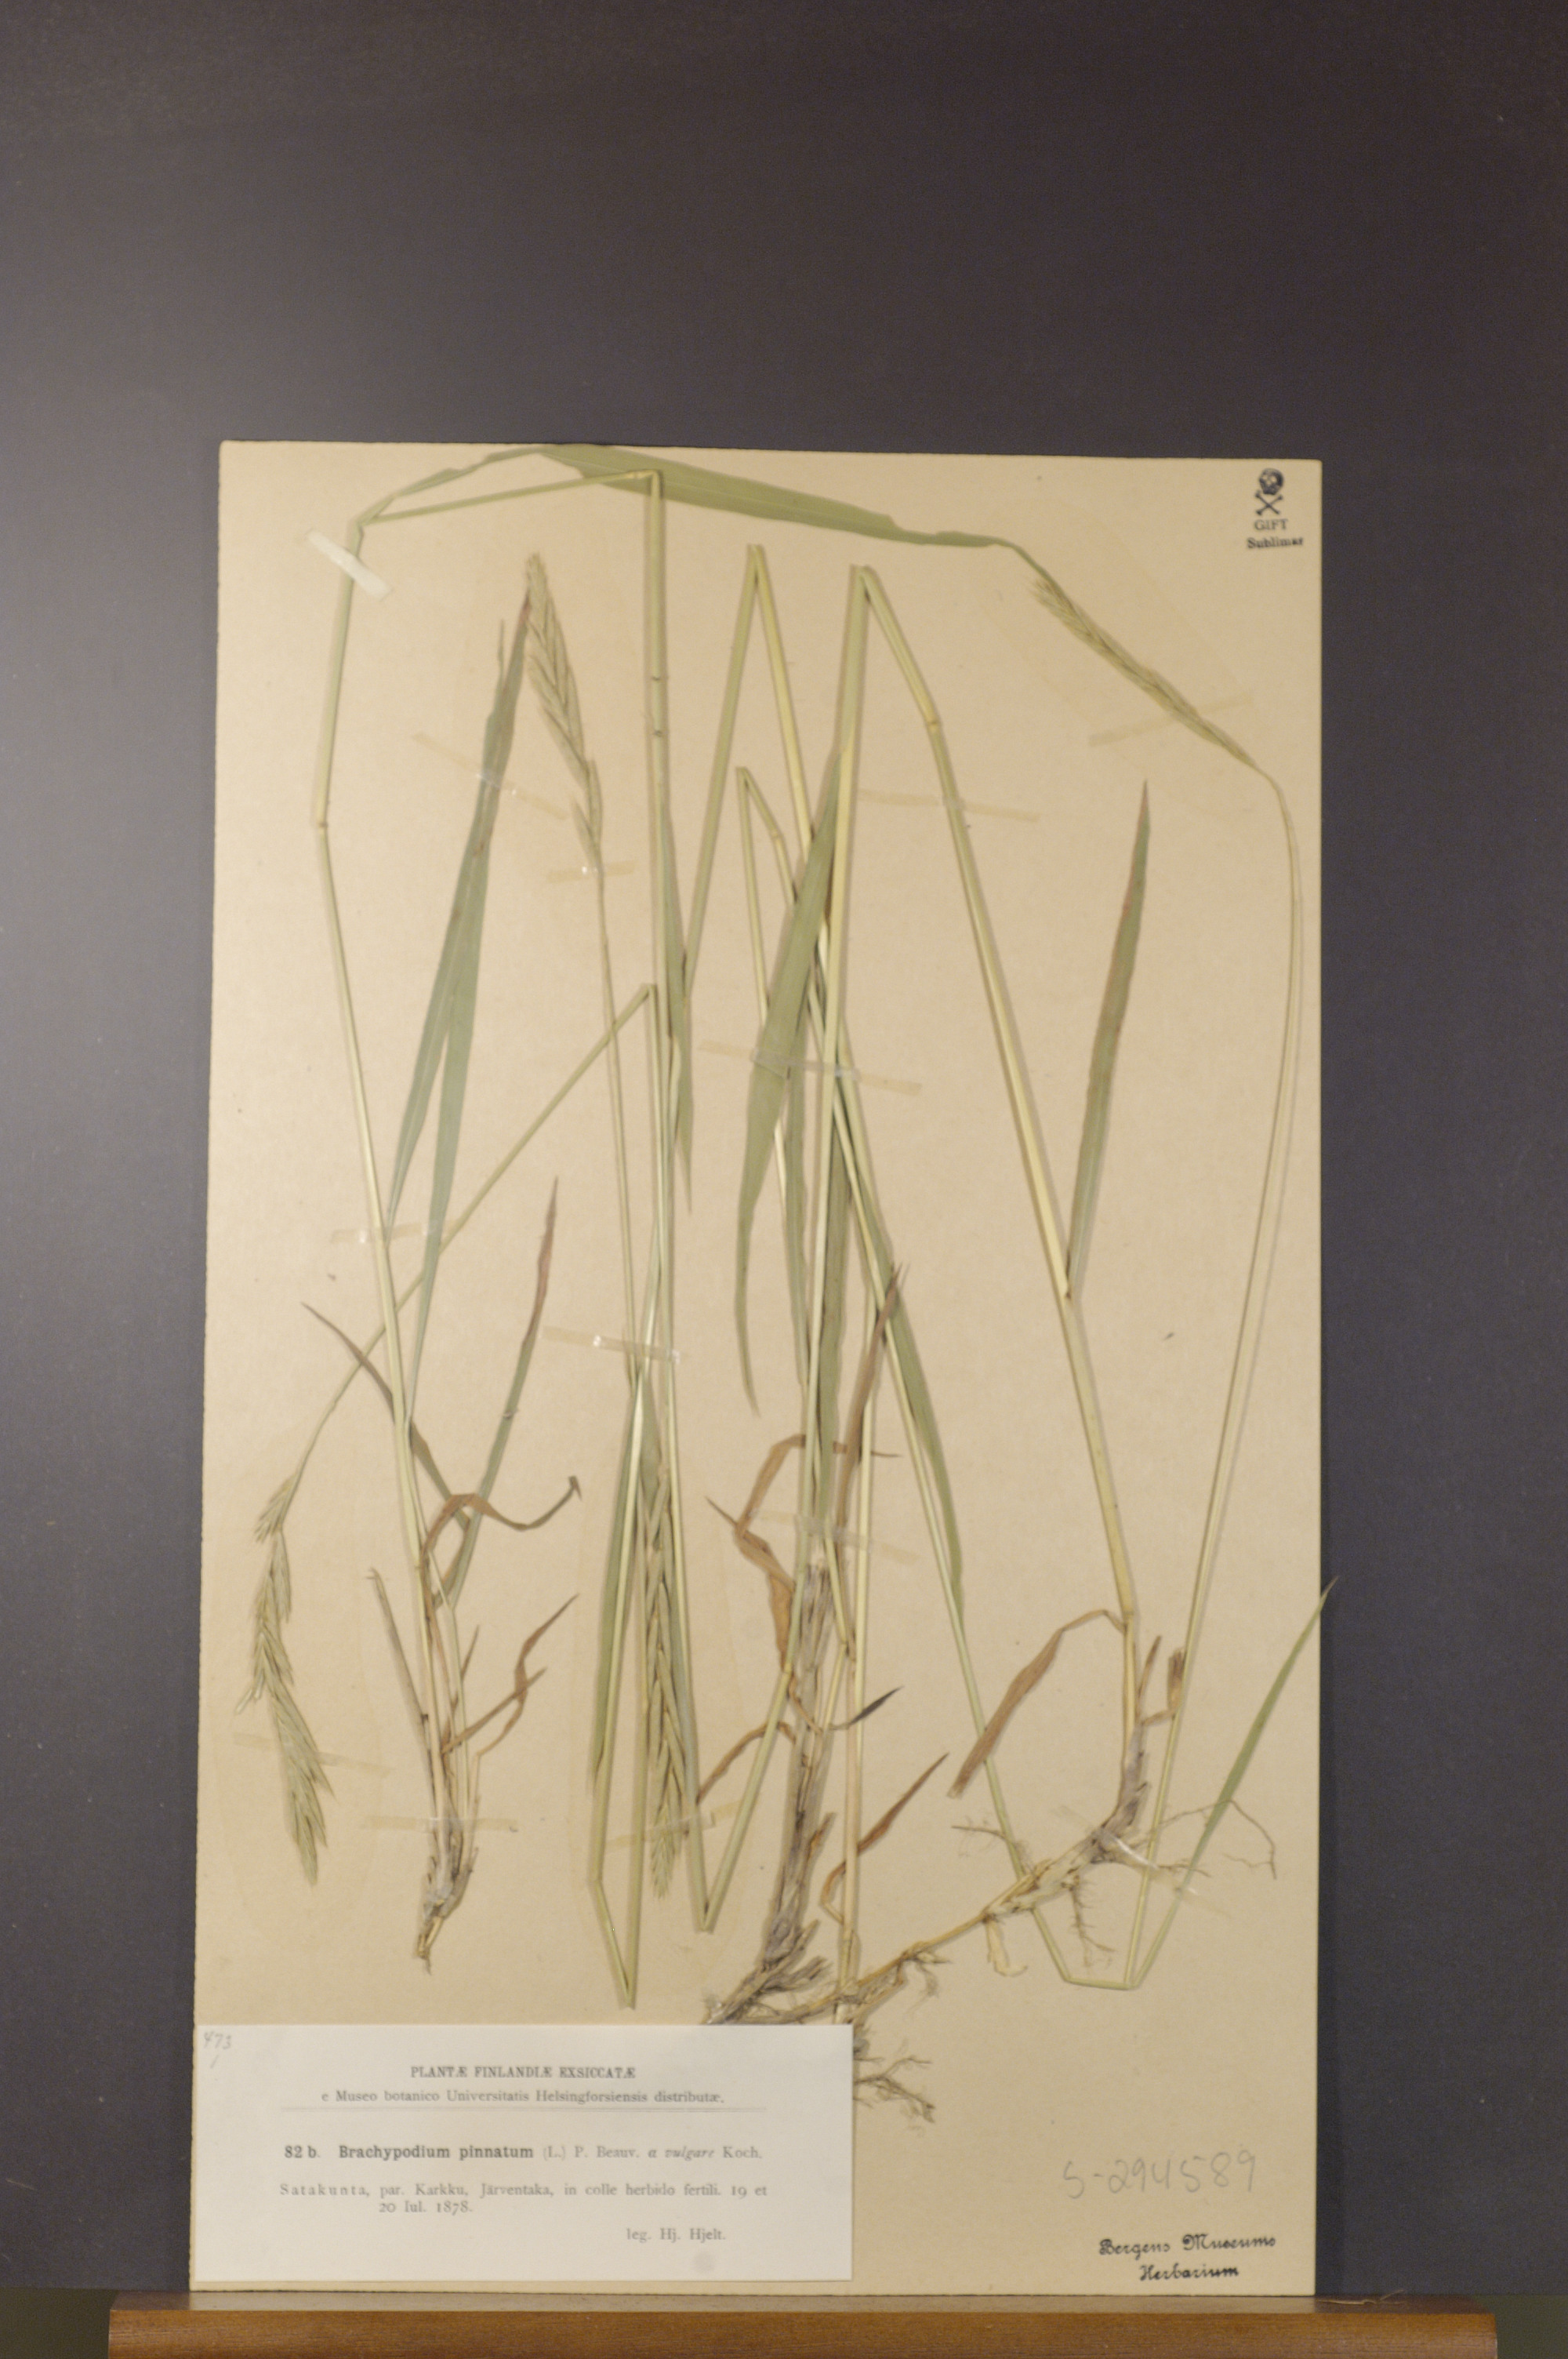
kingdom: Plantae
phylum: Tracheophyta
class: Liliopsida
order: Poales
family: Poaceae
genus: Brachypodium
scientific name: Brachypodium pinnatum
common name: Tor grass
